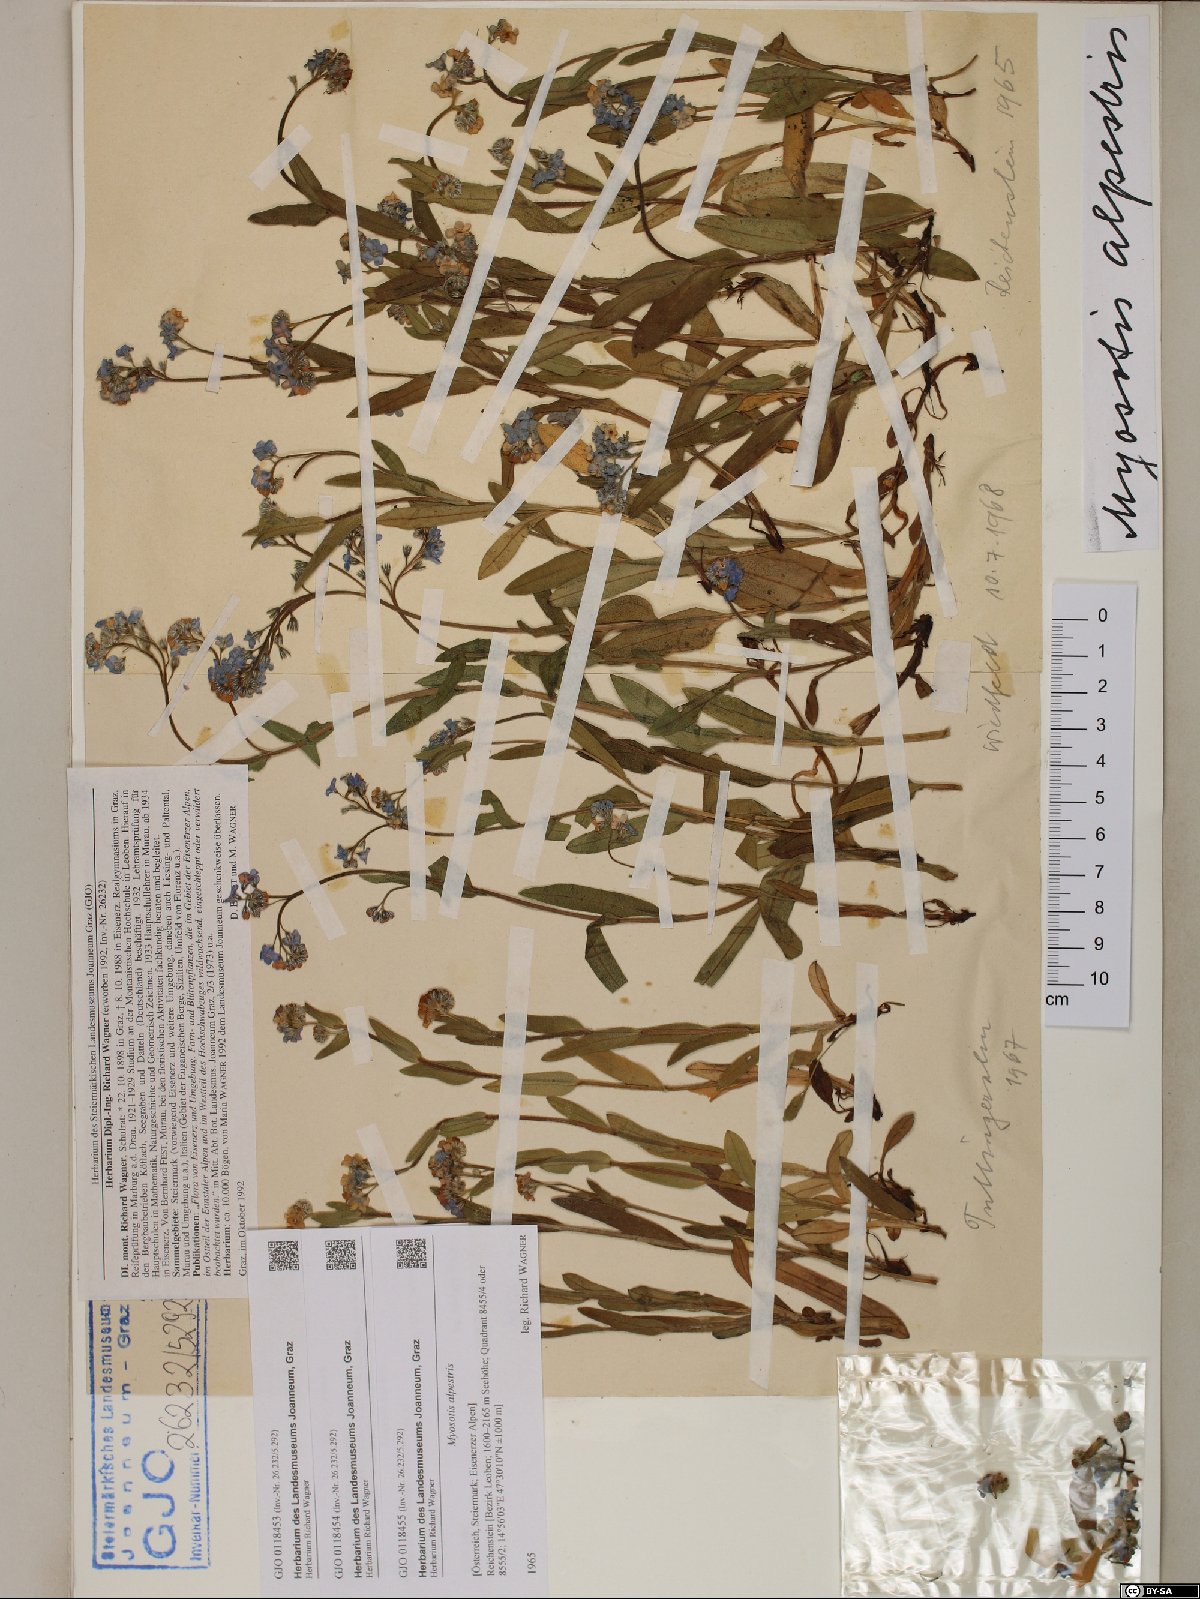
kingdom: Plantae
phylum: Tracheophyta
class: Magnoliopsida
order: Boraginales
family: Boraginaceae
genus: Myosotis
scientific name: Myosotis alpestris
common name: Alpine forget-me-not
